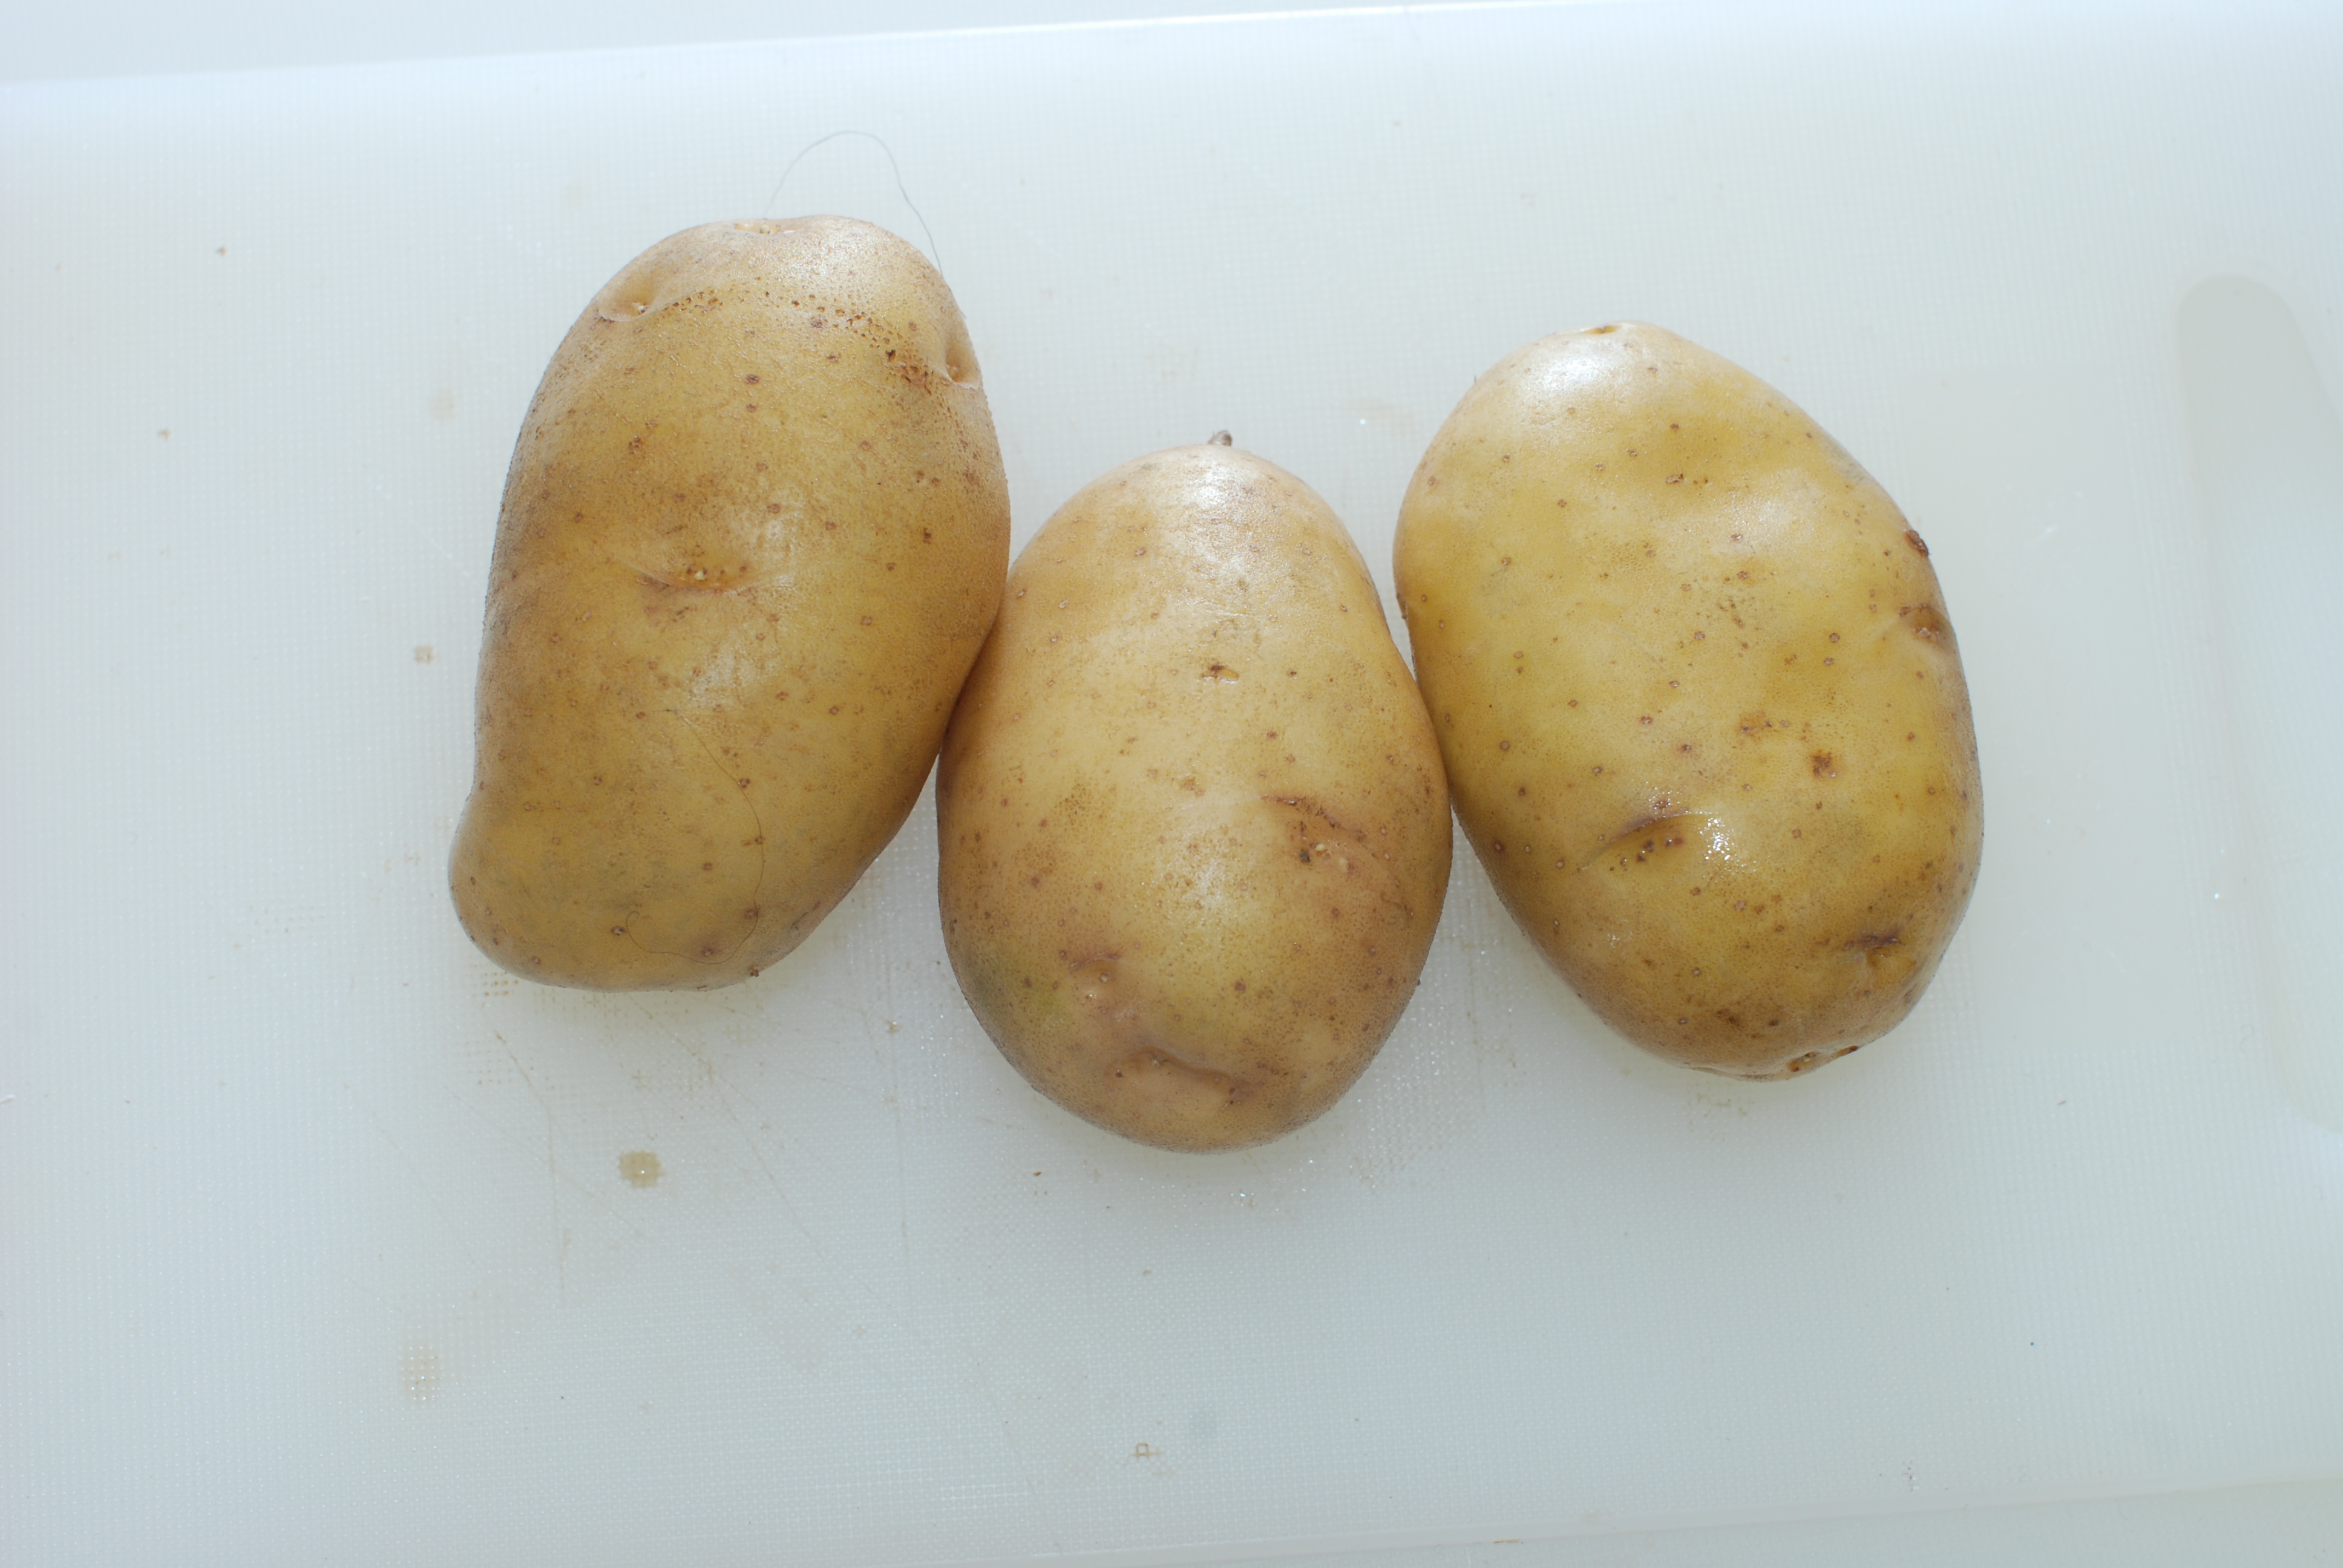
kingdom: Plantae
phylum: Tracheophyta
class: Magnoliopsida
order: Solanales
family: Solanaceae
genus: Solanum
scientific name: Solanum tuberosum
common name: Potato
